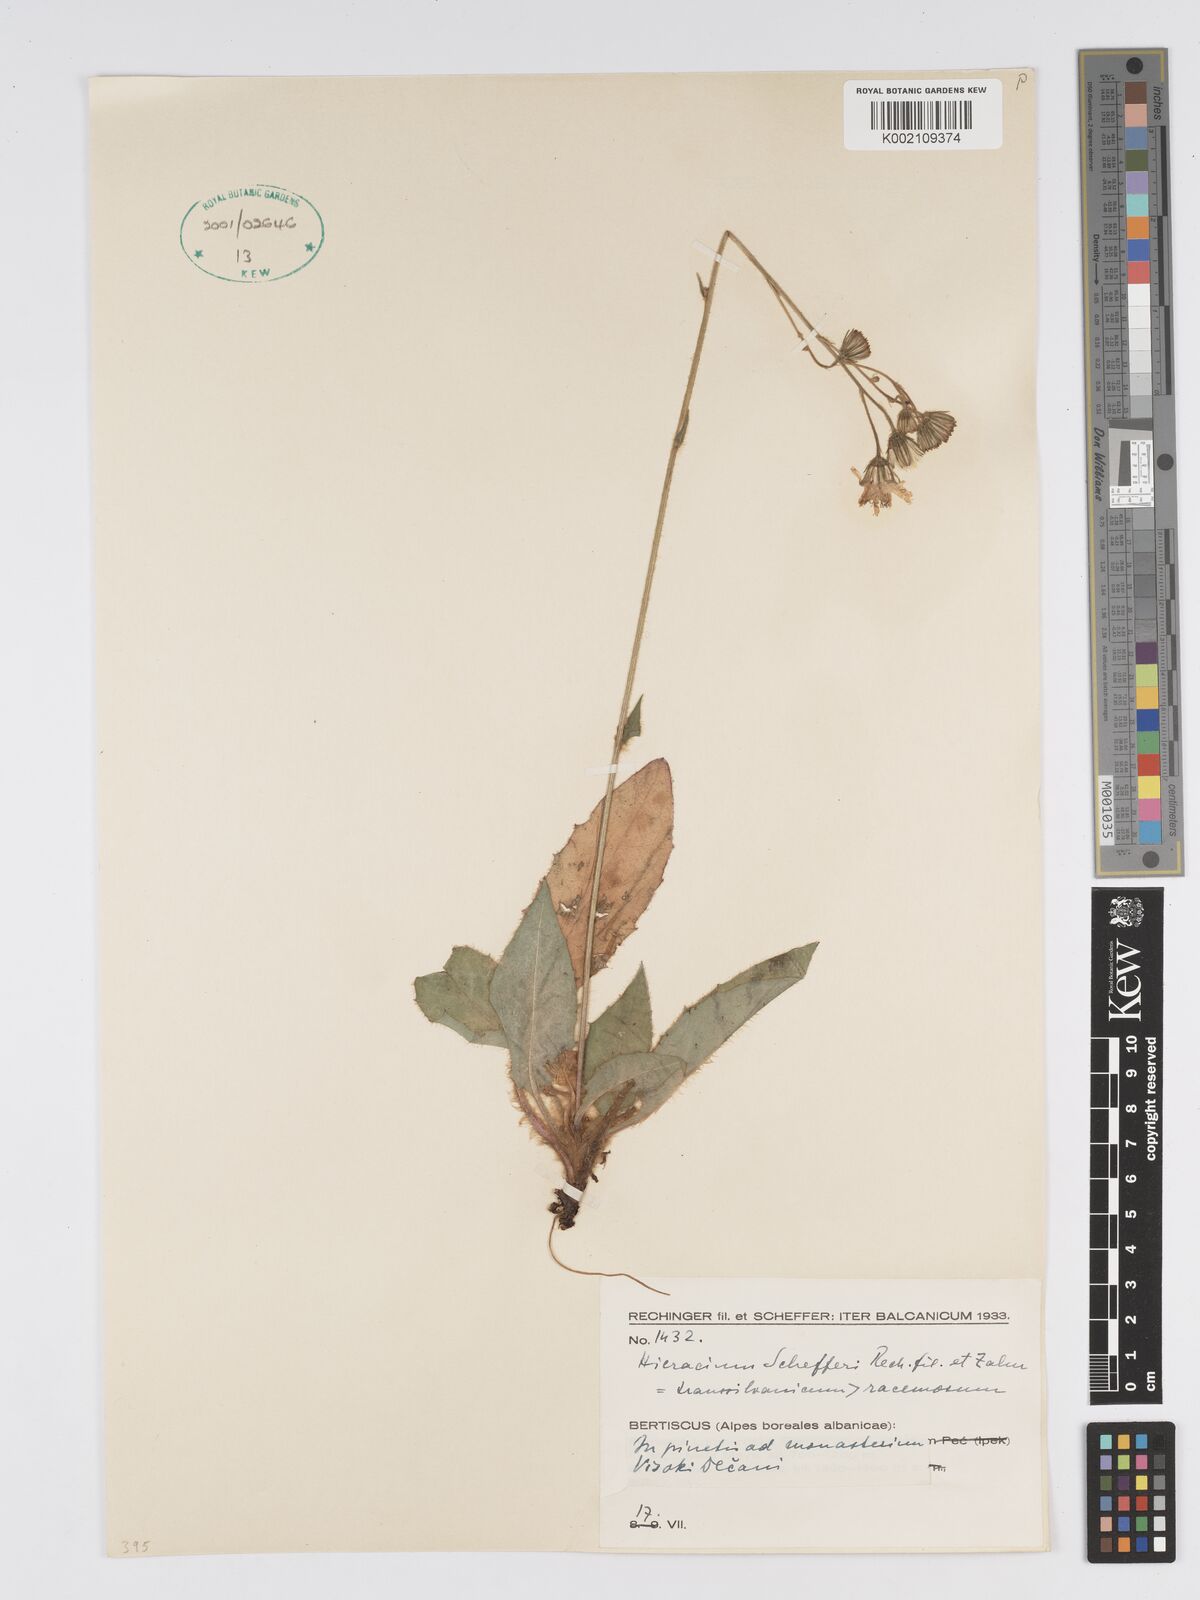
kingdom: Plantae
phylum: Tracheophyta
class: Magnoliopsida
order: Asterales
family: Asteraceae
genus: Hieracium
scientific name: Hieracium racemosum
